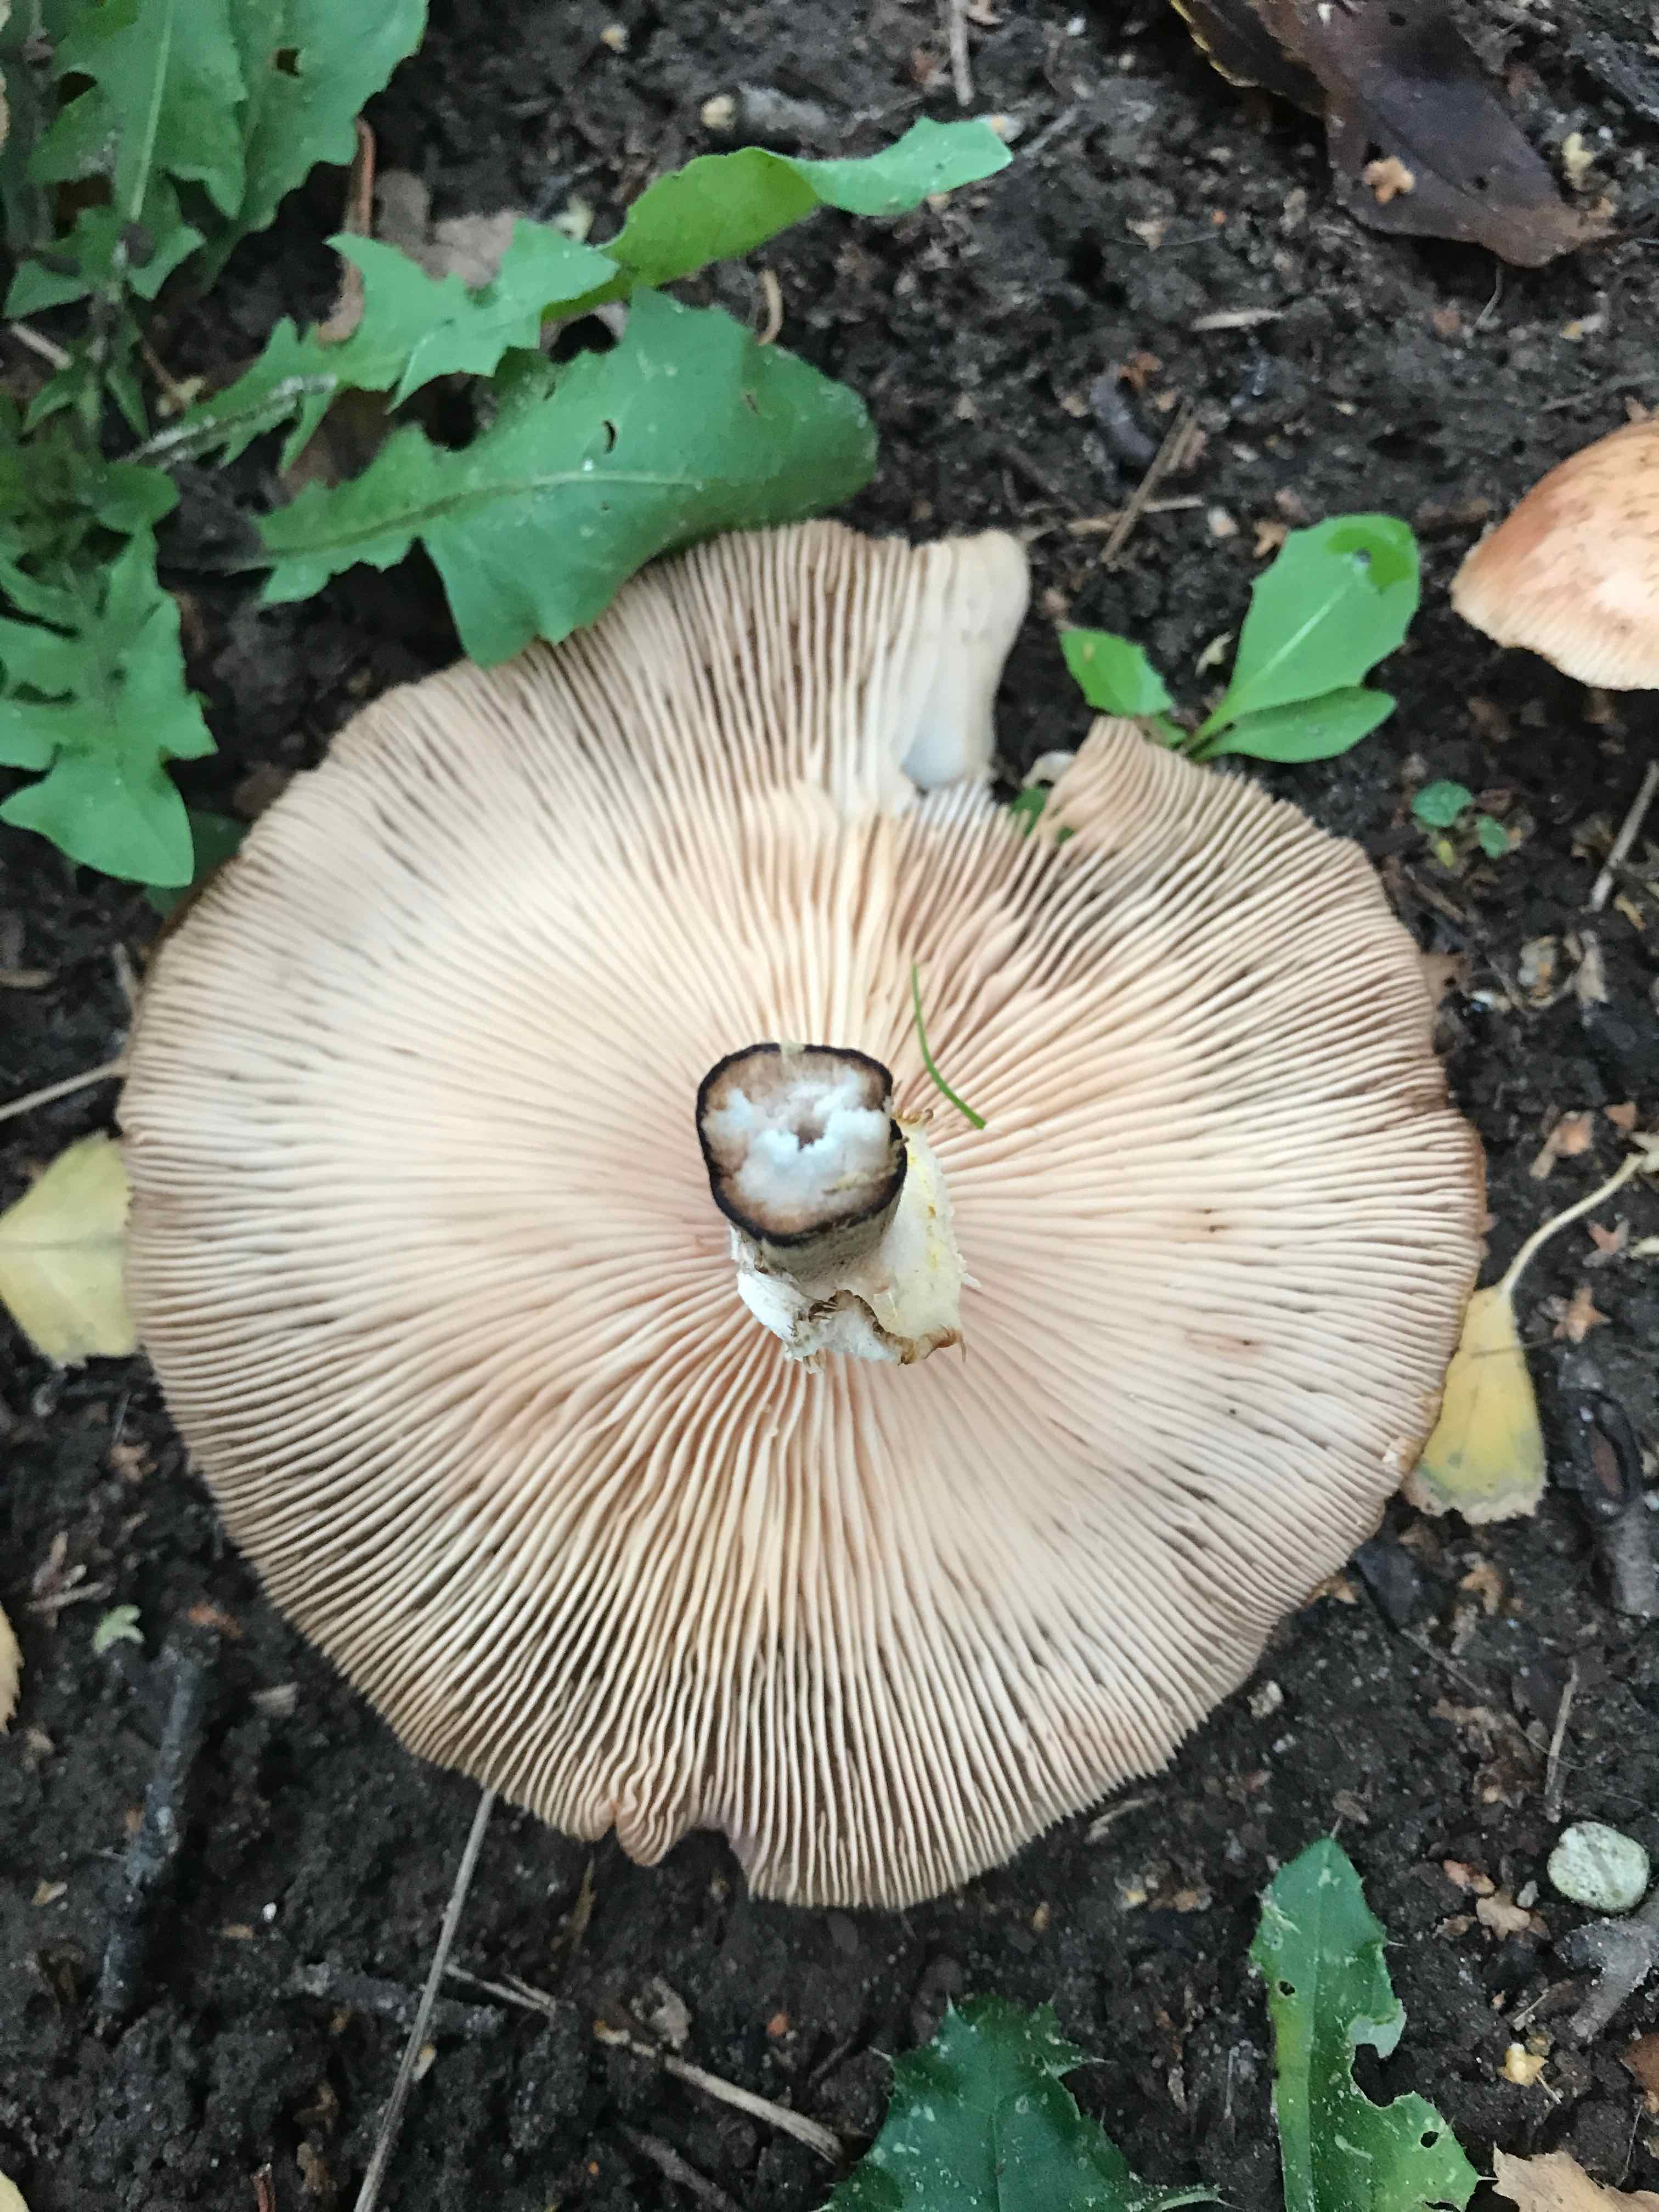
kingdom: Fungi
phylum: Basidiomycota
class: Agaricomycetes
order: Agaricales
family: Physalacriaceae
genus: Armillaria
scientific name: Armillaria
